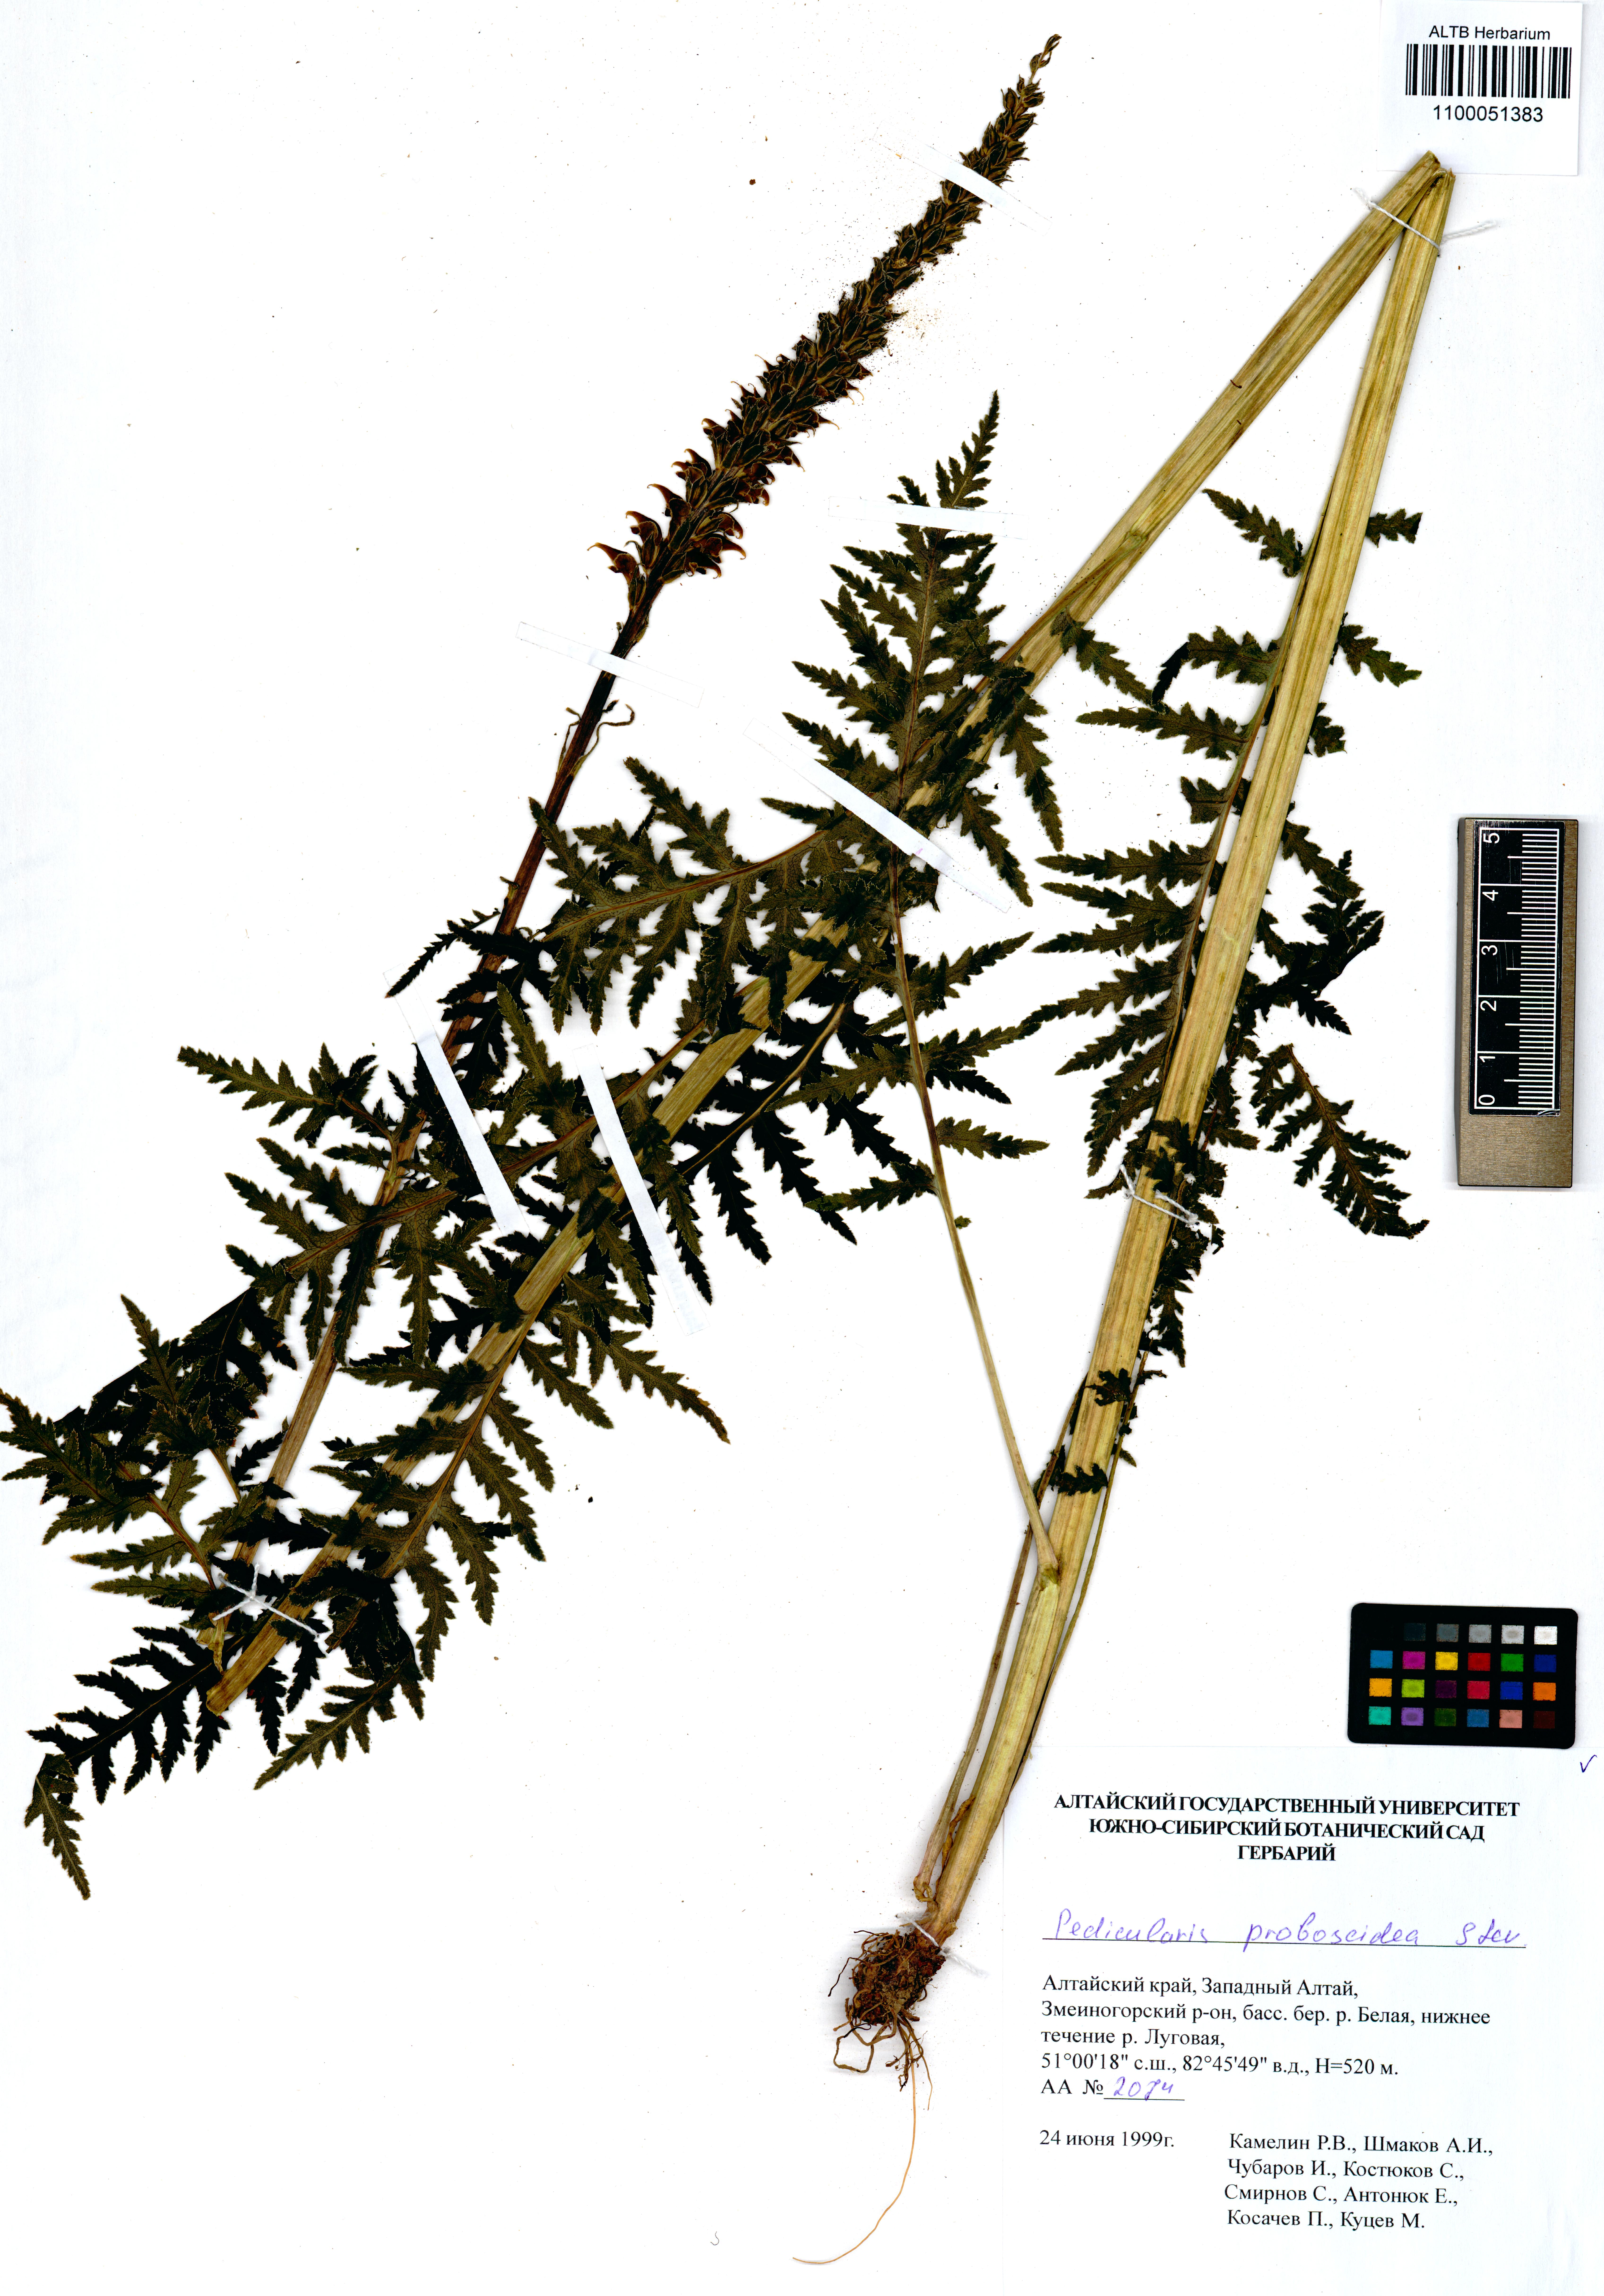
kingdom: Plantae
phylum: Tracheophyta
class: Magnoliopsida
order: Lamiales
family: Orobanchaceae
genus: Pedicularis
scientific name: Pedicularis proboscidea
